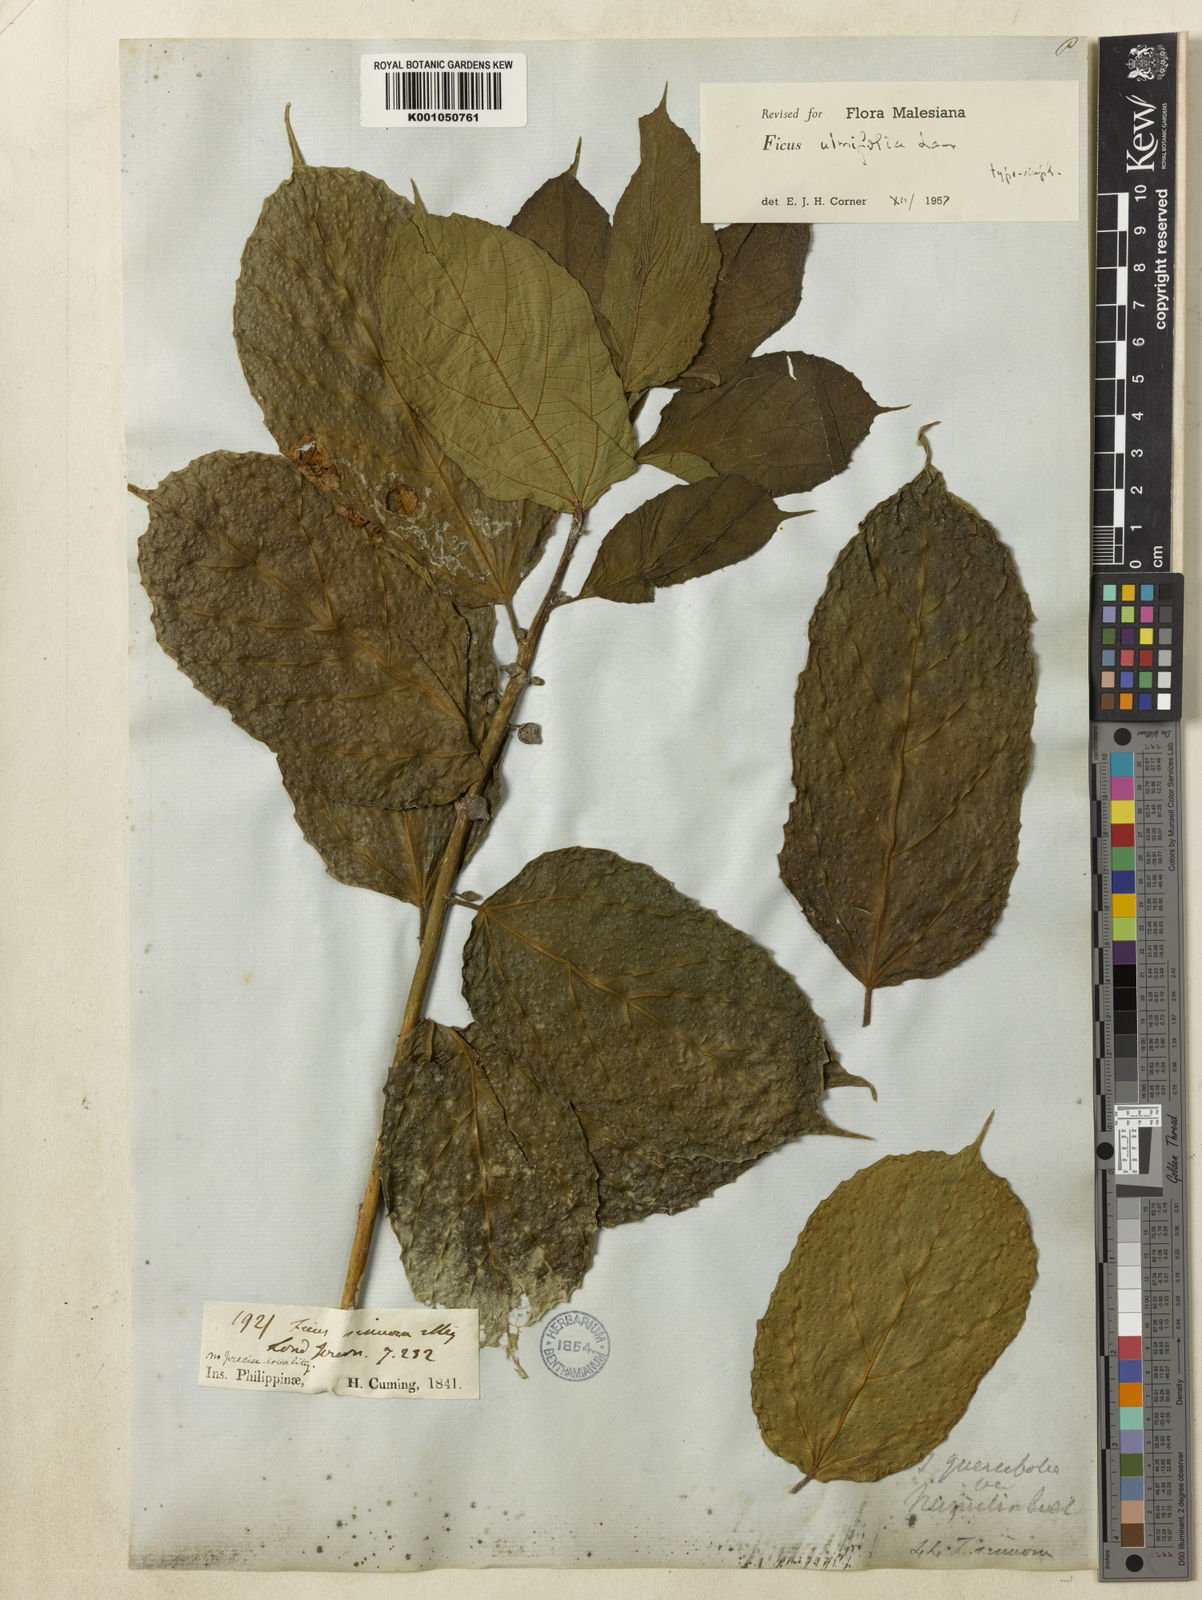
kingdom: Plantae
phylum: Tracheophyta
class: Magnoliopsida
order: Rosales
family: Moraceae
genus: Ficus
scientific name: Ficus ulmifolia
